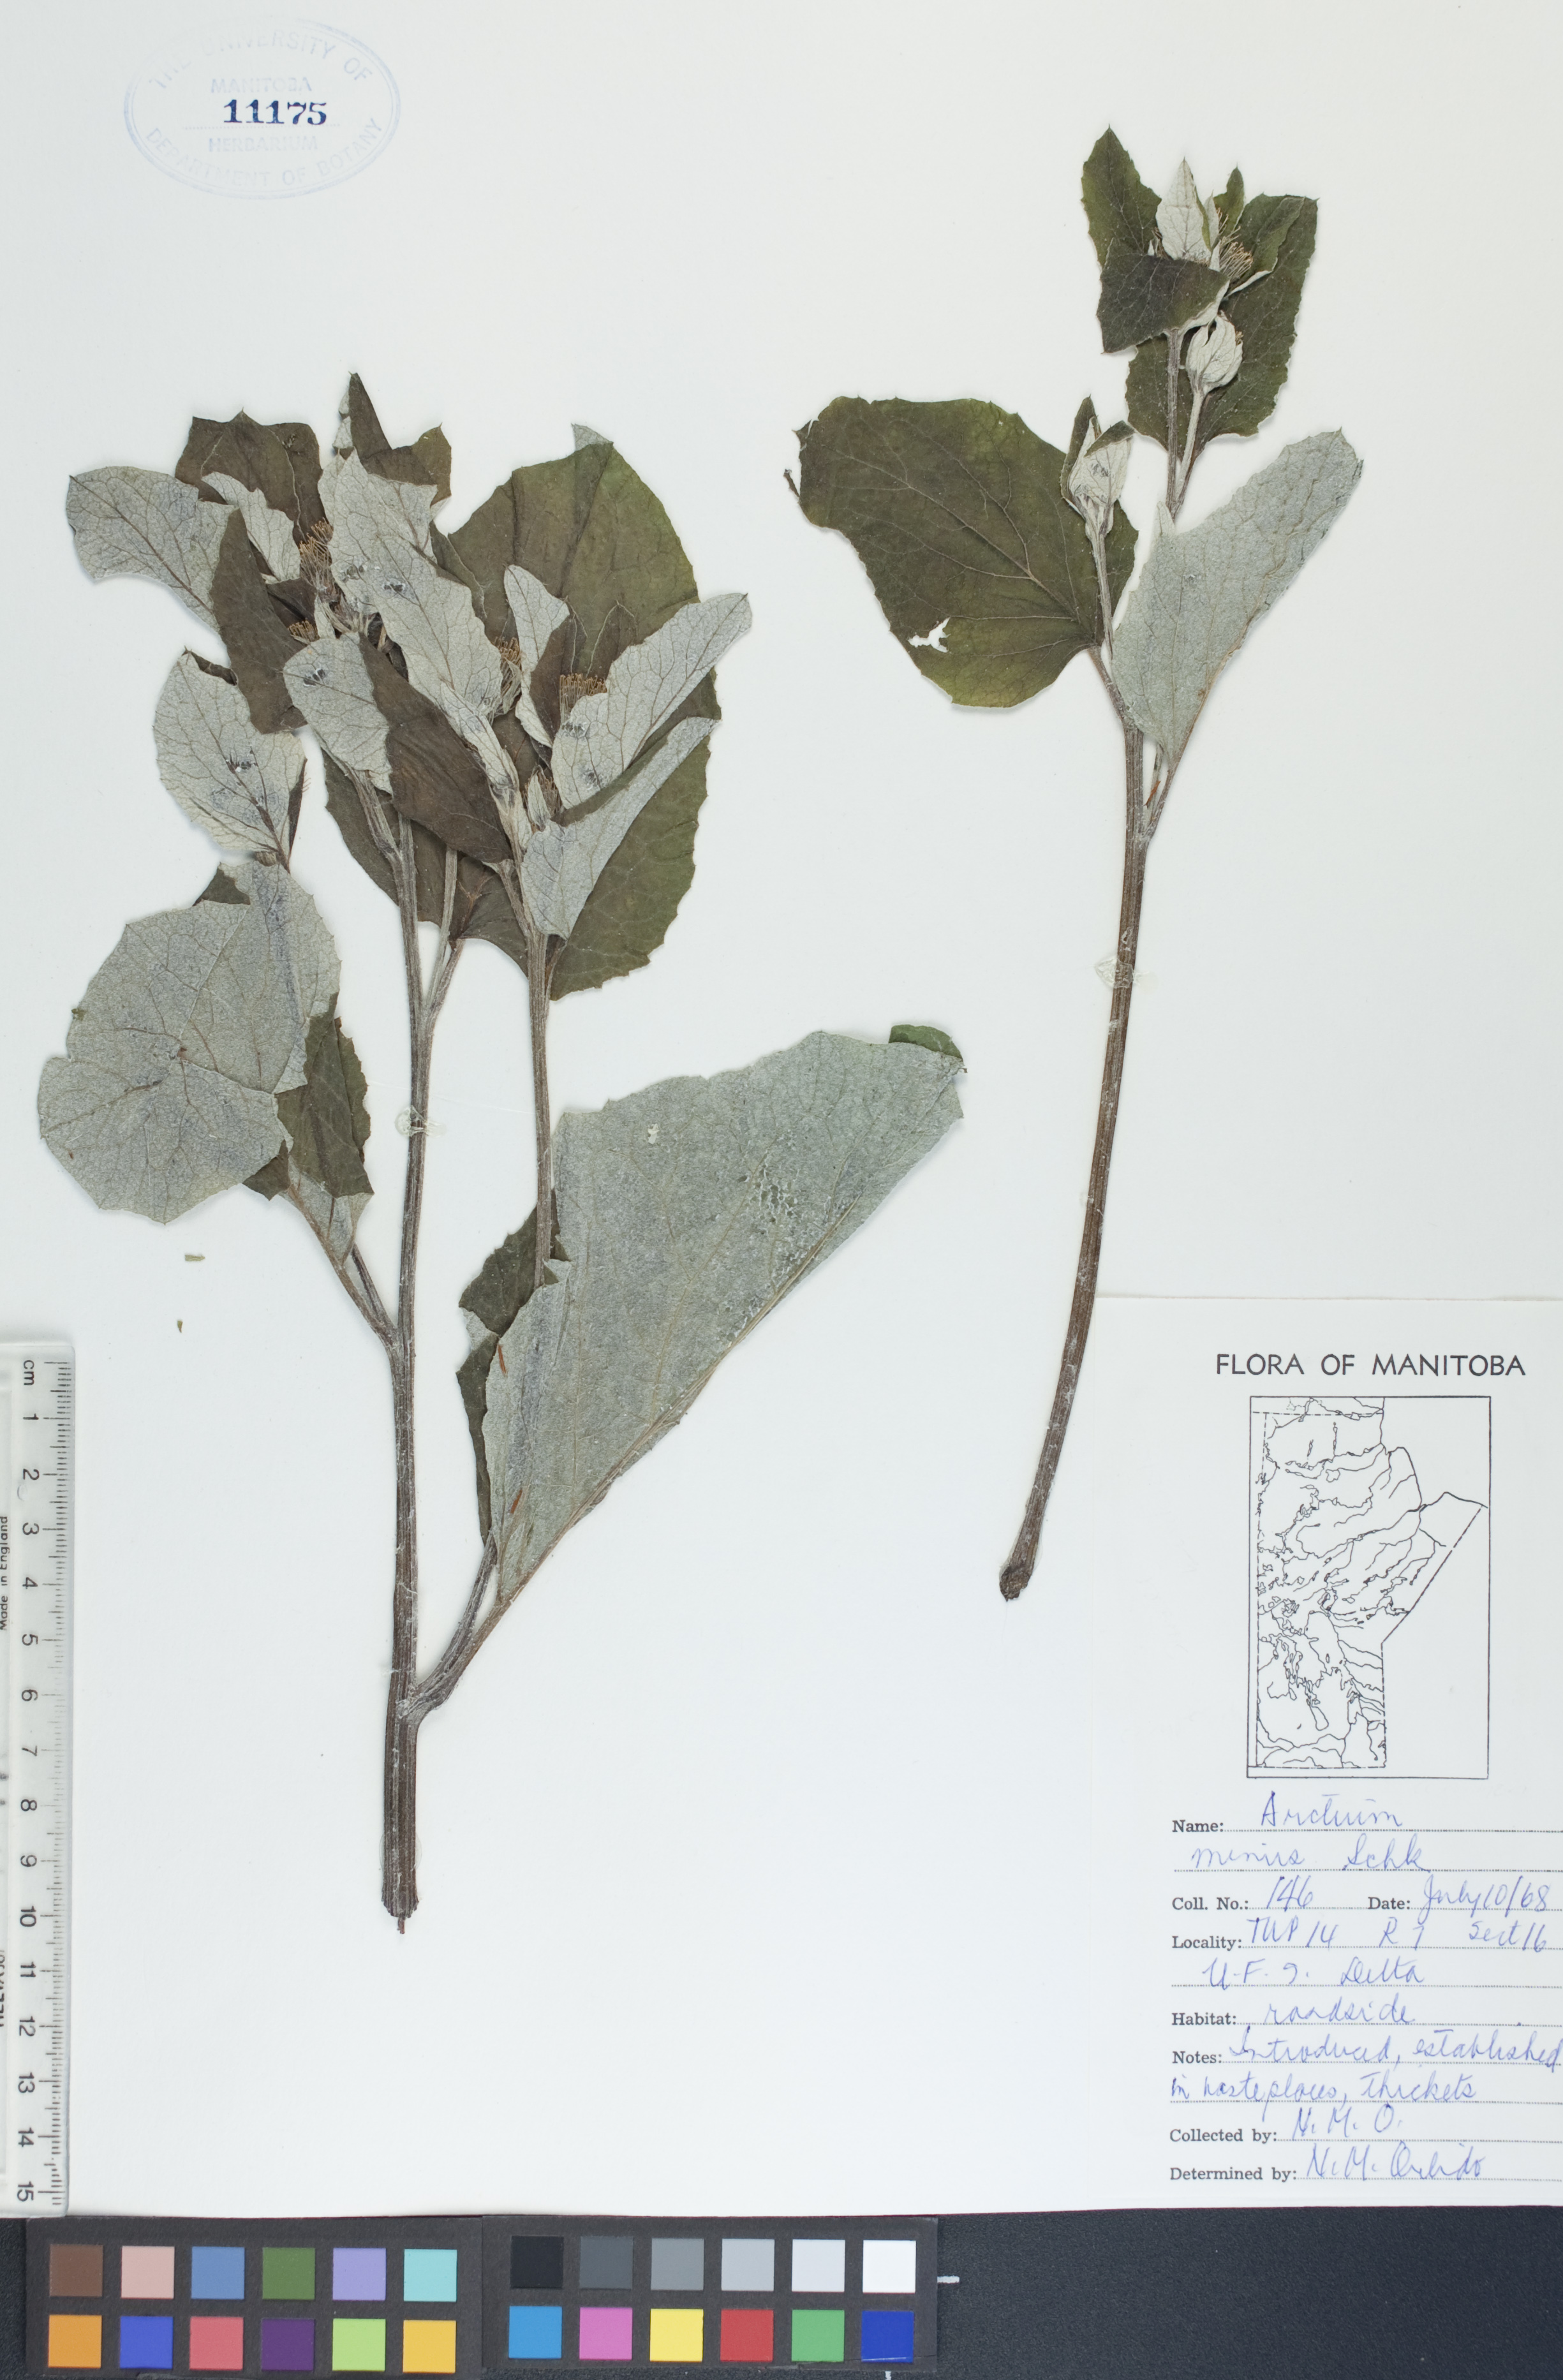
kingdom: Plantae
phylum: Tracheophyta
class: Magnoliopsida
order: Asterales
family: Asteraceae
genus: Arctium
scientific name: Arctium minus
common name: Lesser burdock
